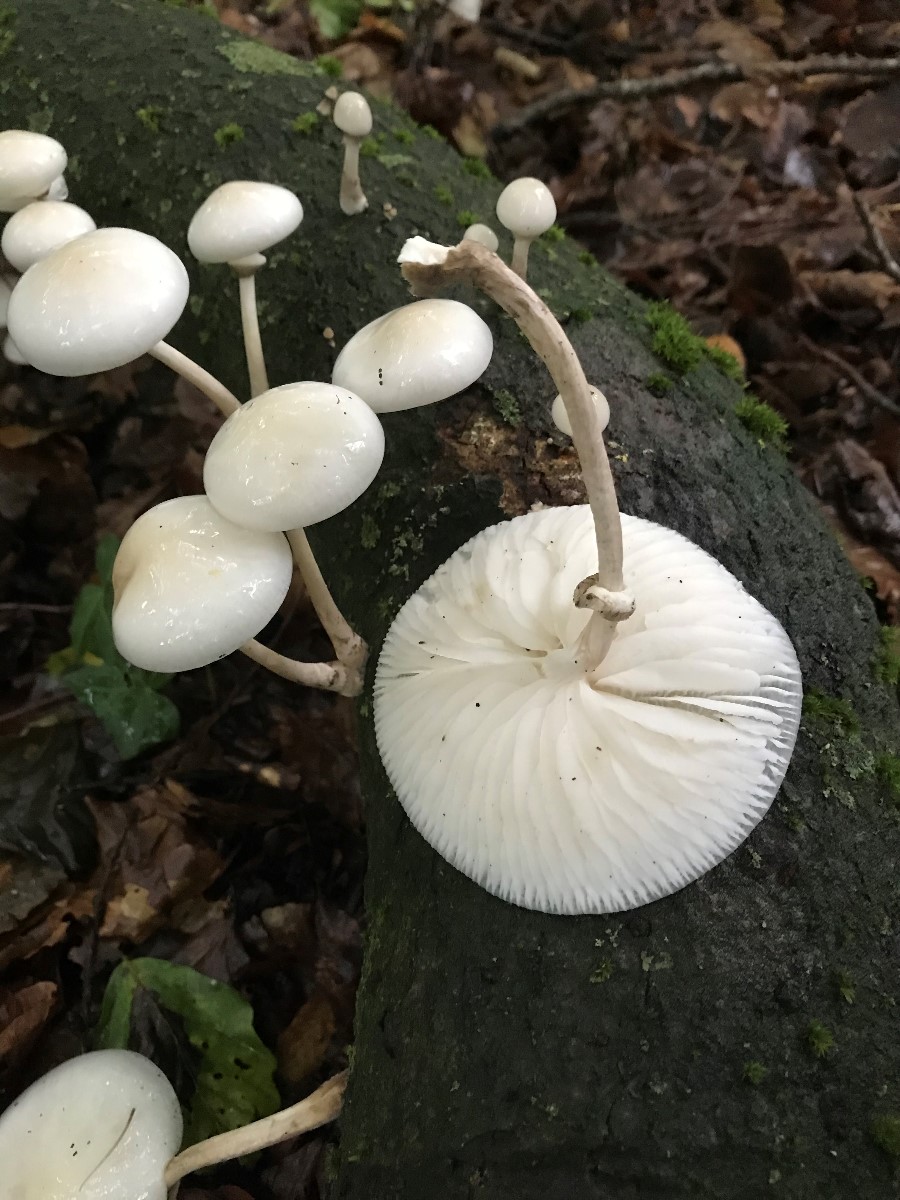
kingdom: Fungi
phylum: Basidiomycota
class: Agaricomycetes
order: Agaricales
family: Physalacriaceae
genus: Mucidula
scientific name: Mucidula mucida
